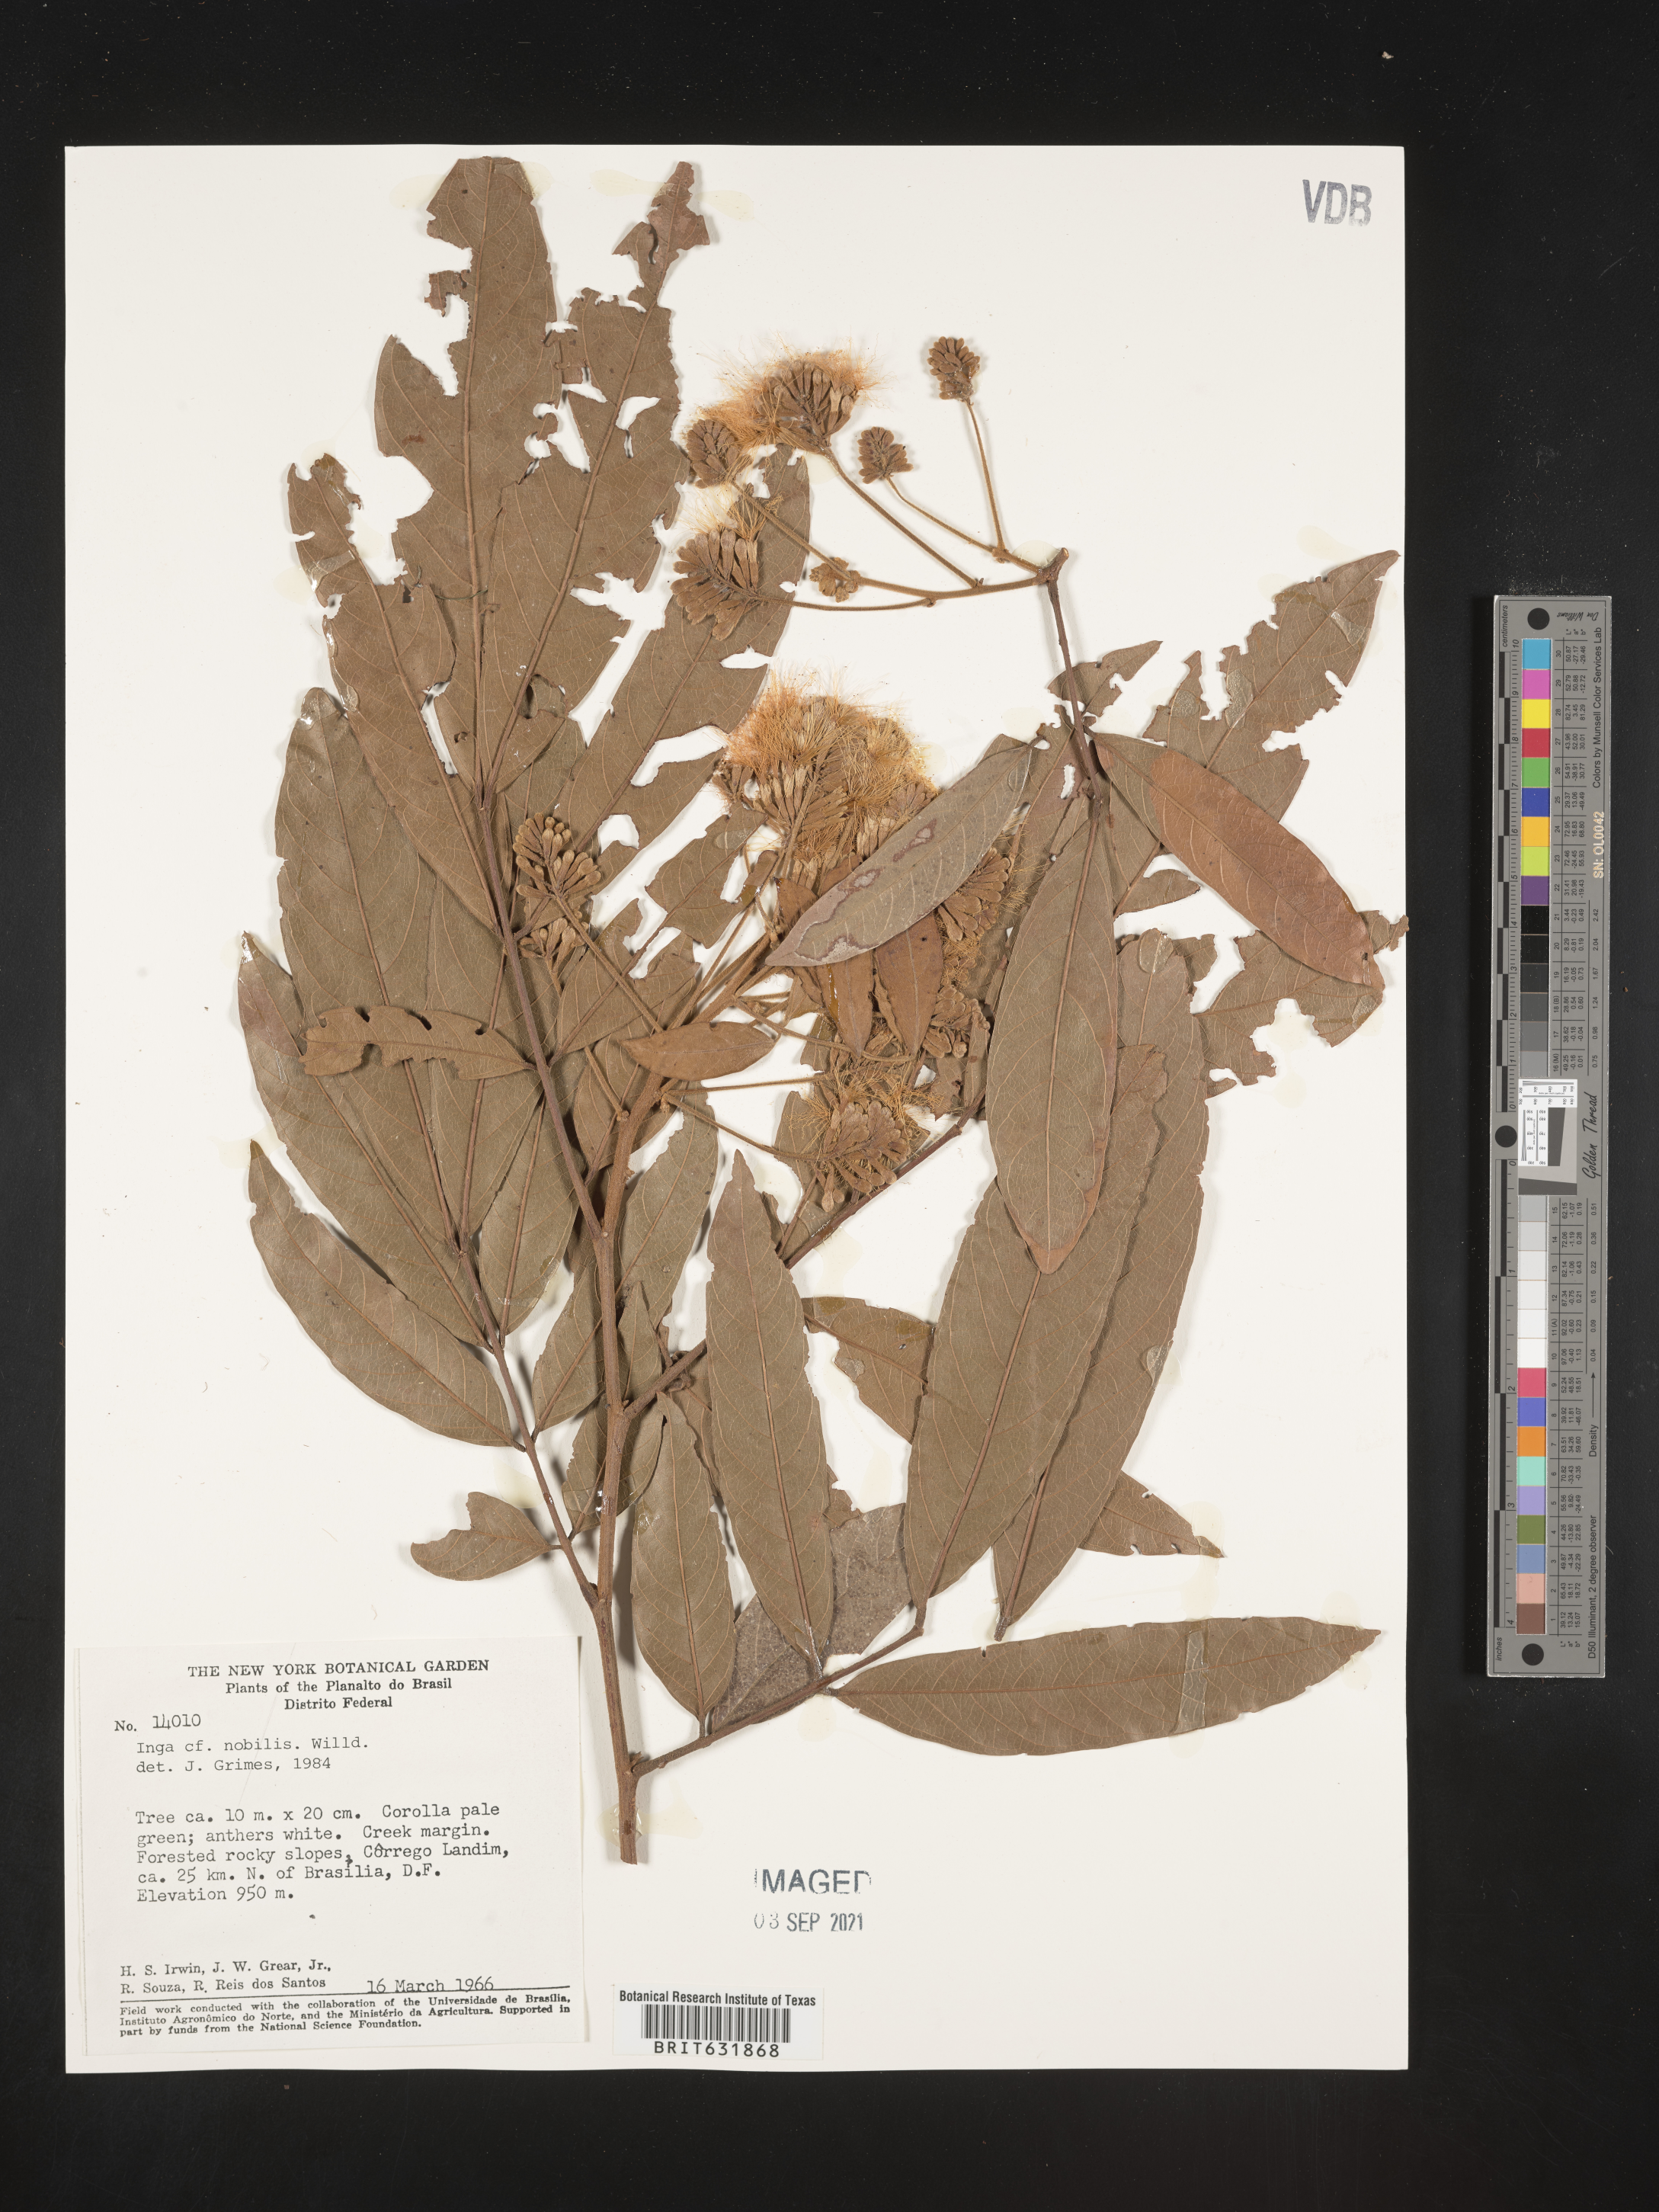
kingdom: Plantae
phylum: Tracheophyta
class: Magnoliopsida
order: Fabales
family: Fabaceae
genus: Inga
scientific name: Inga
